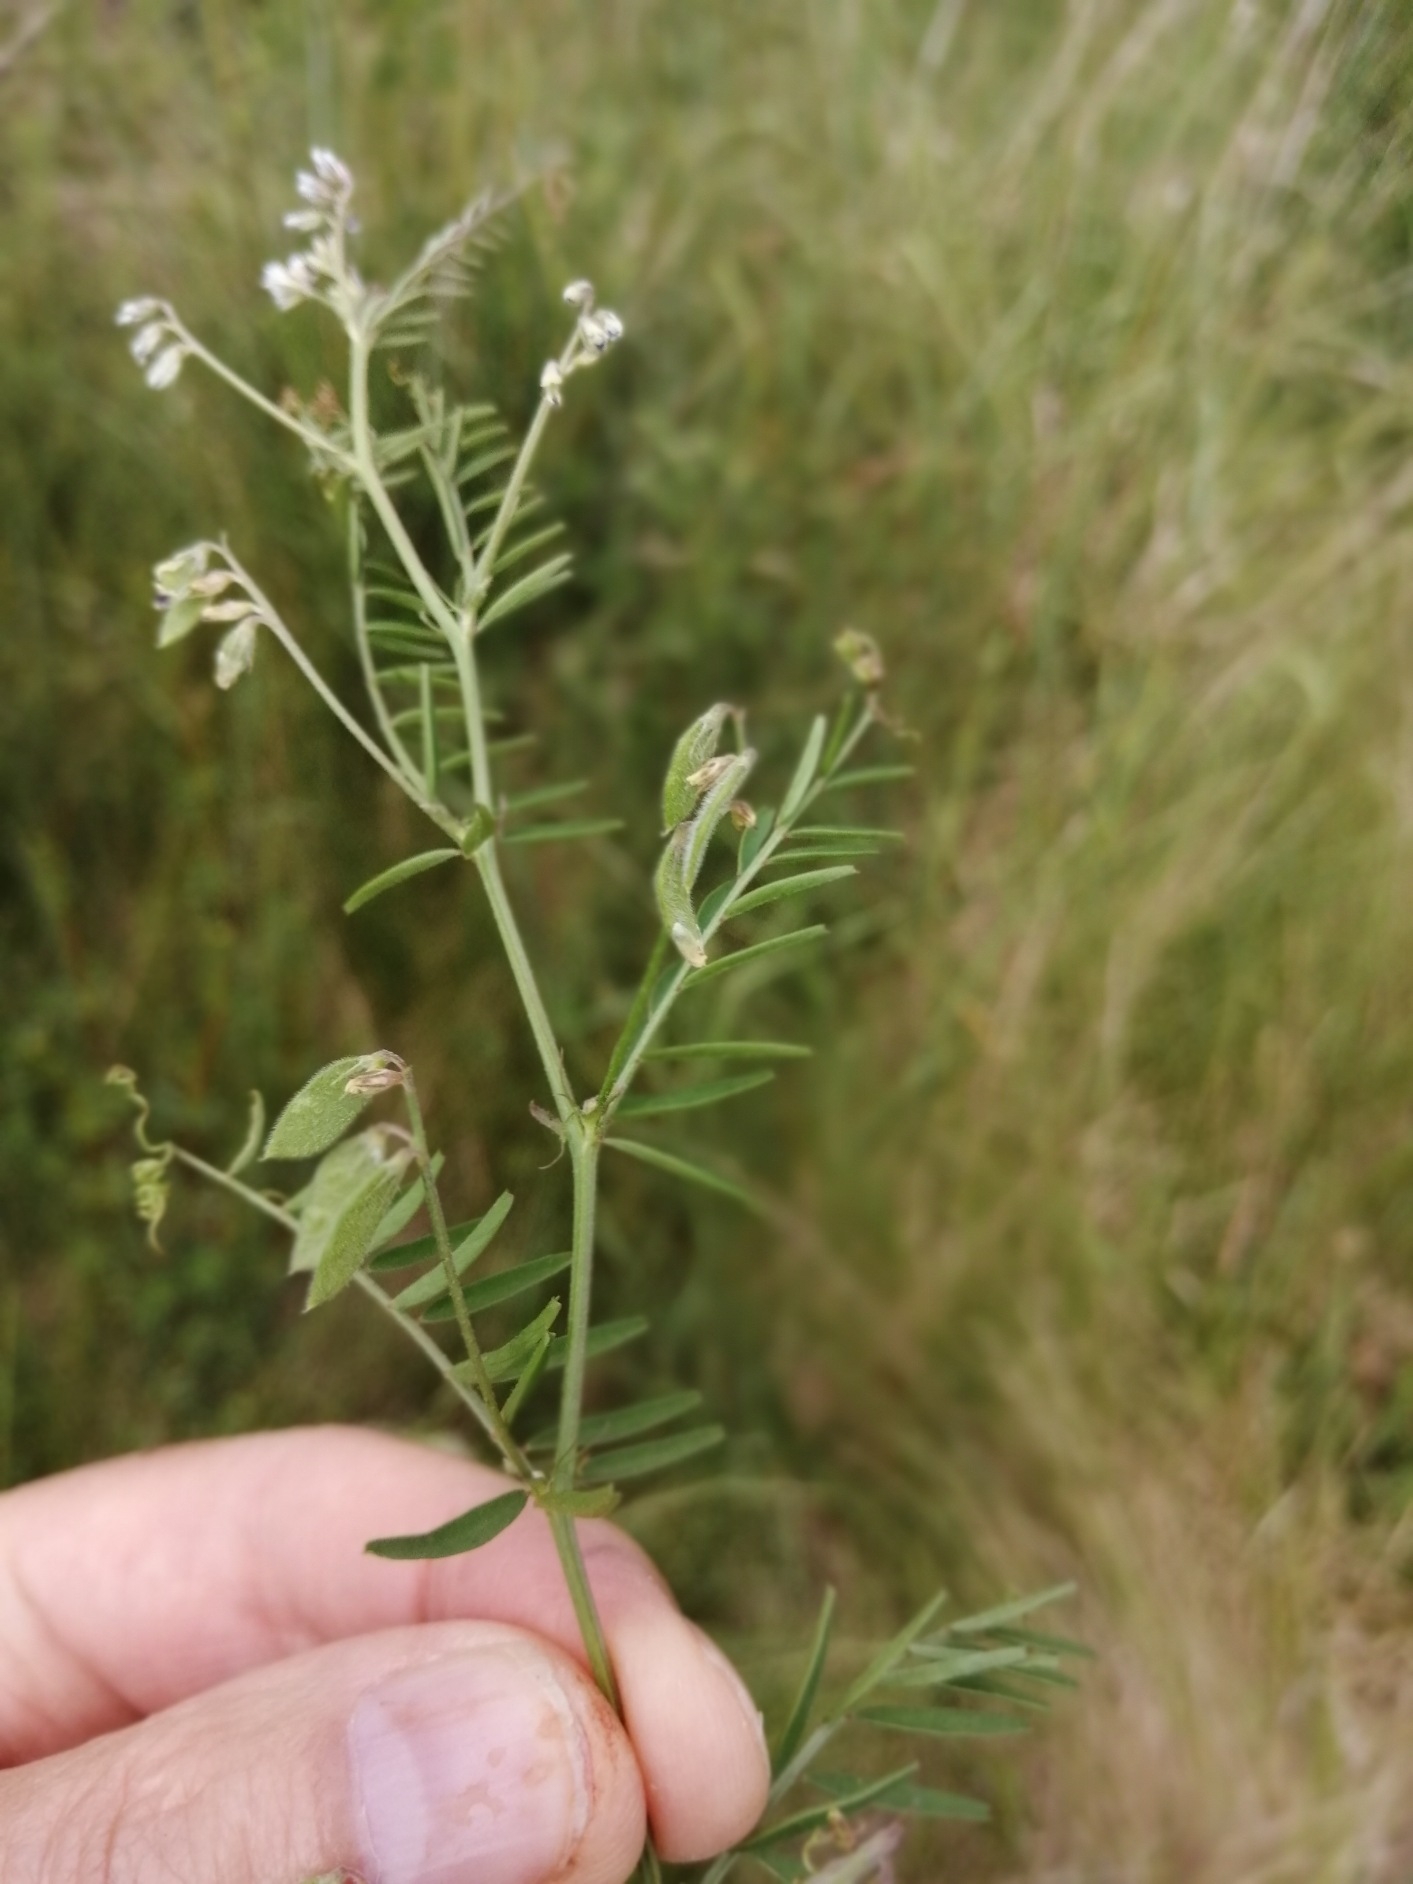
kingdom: Plantae
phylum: Tracheophyta
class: Magnoliopsida
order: Fabales
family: Fabaceae
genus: Vicia
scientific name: Vicia hirsuta
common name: Tofrøet vikke
